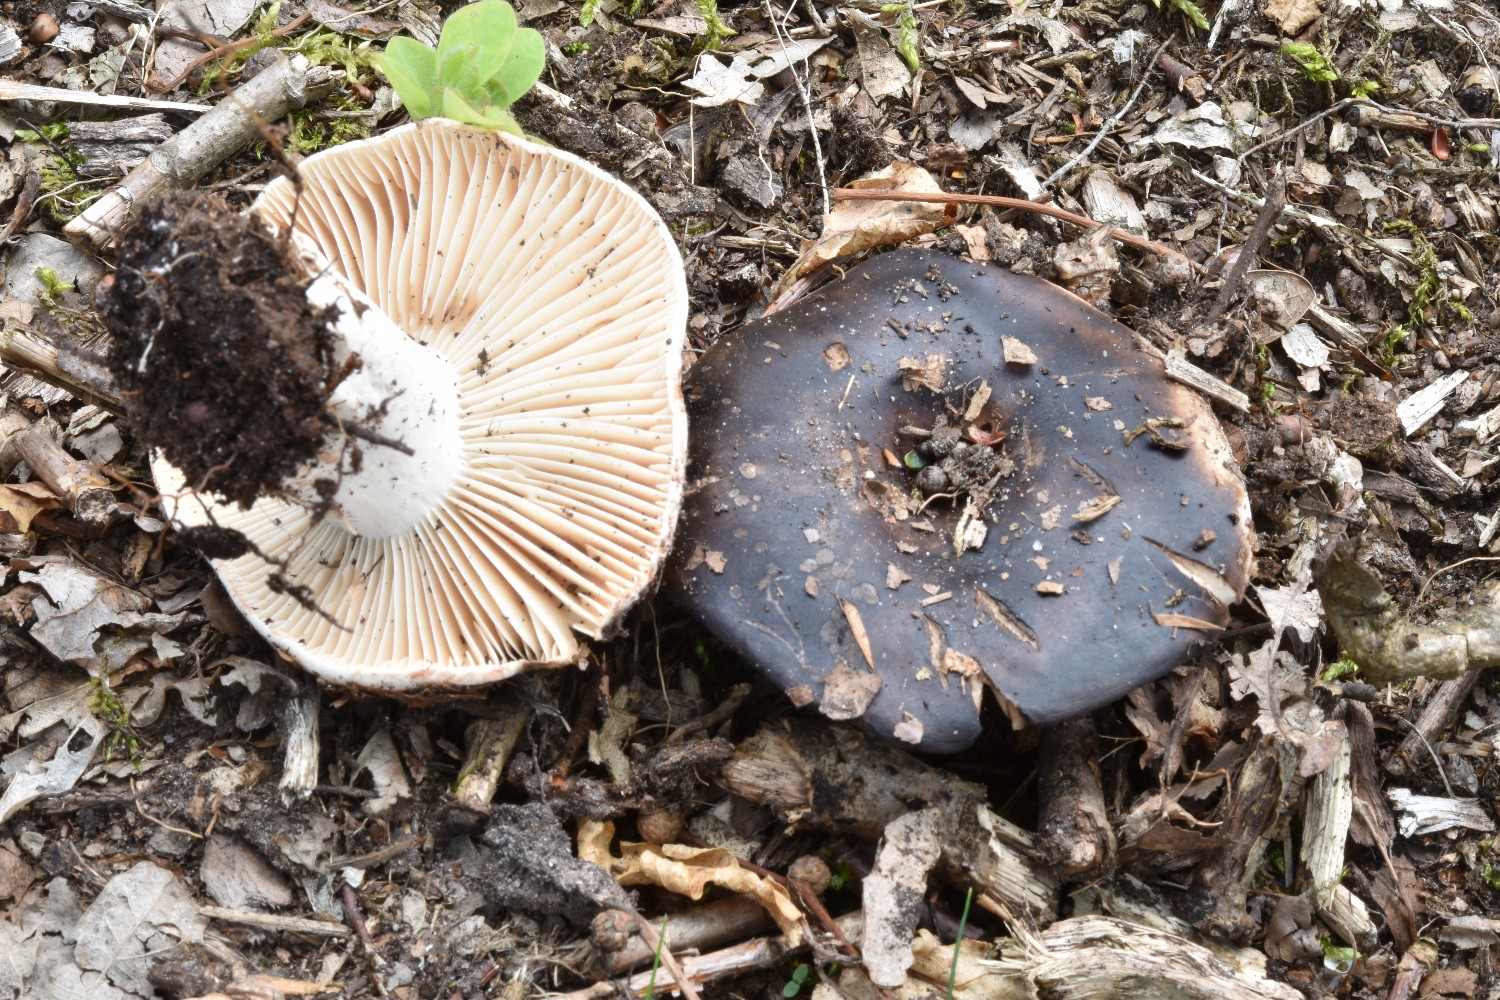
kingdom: Fungi
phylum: Basidiomycota
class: Agaricomycetes
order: Russulales
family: Russulaceae
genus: Russula
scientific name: Russula adusta
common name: sværtende skørhat
